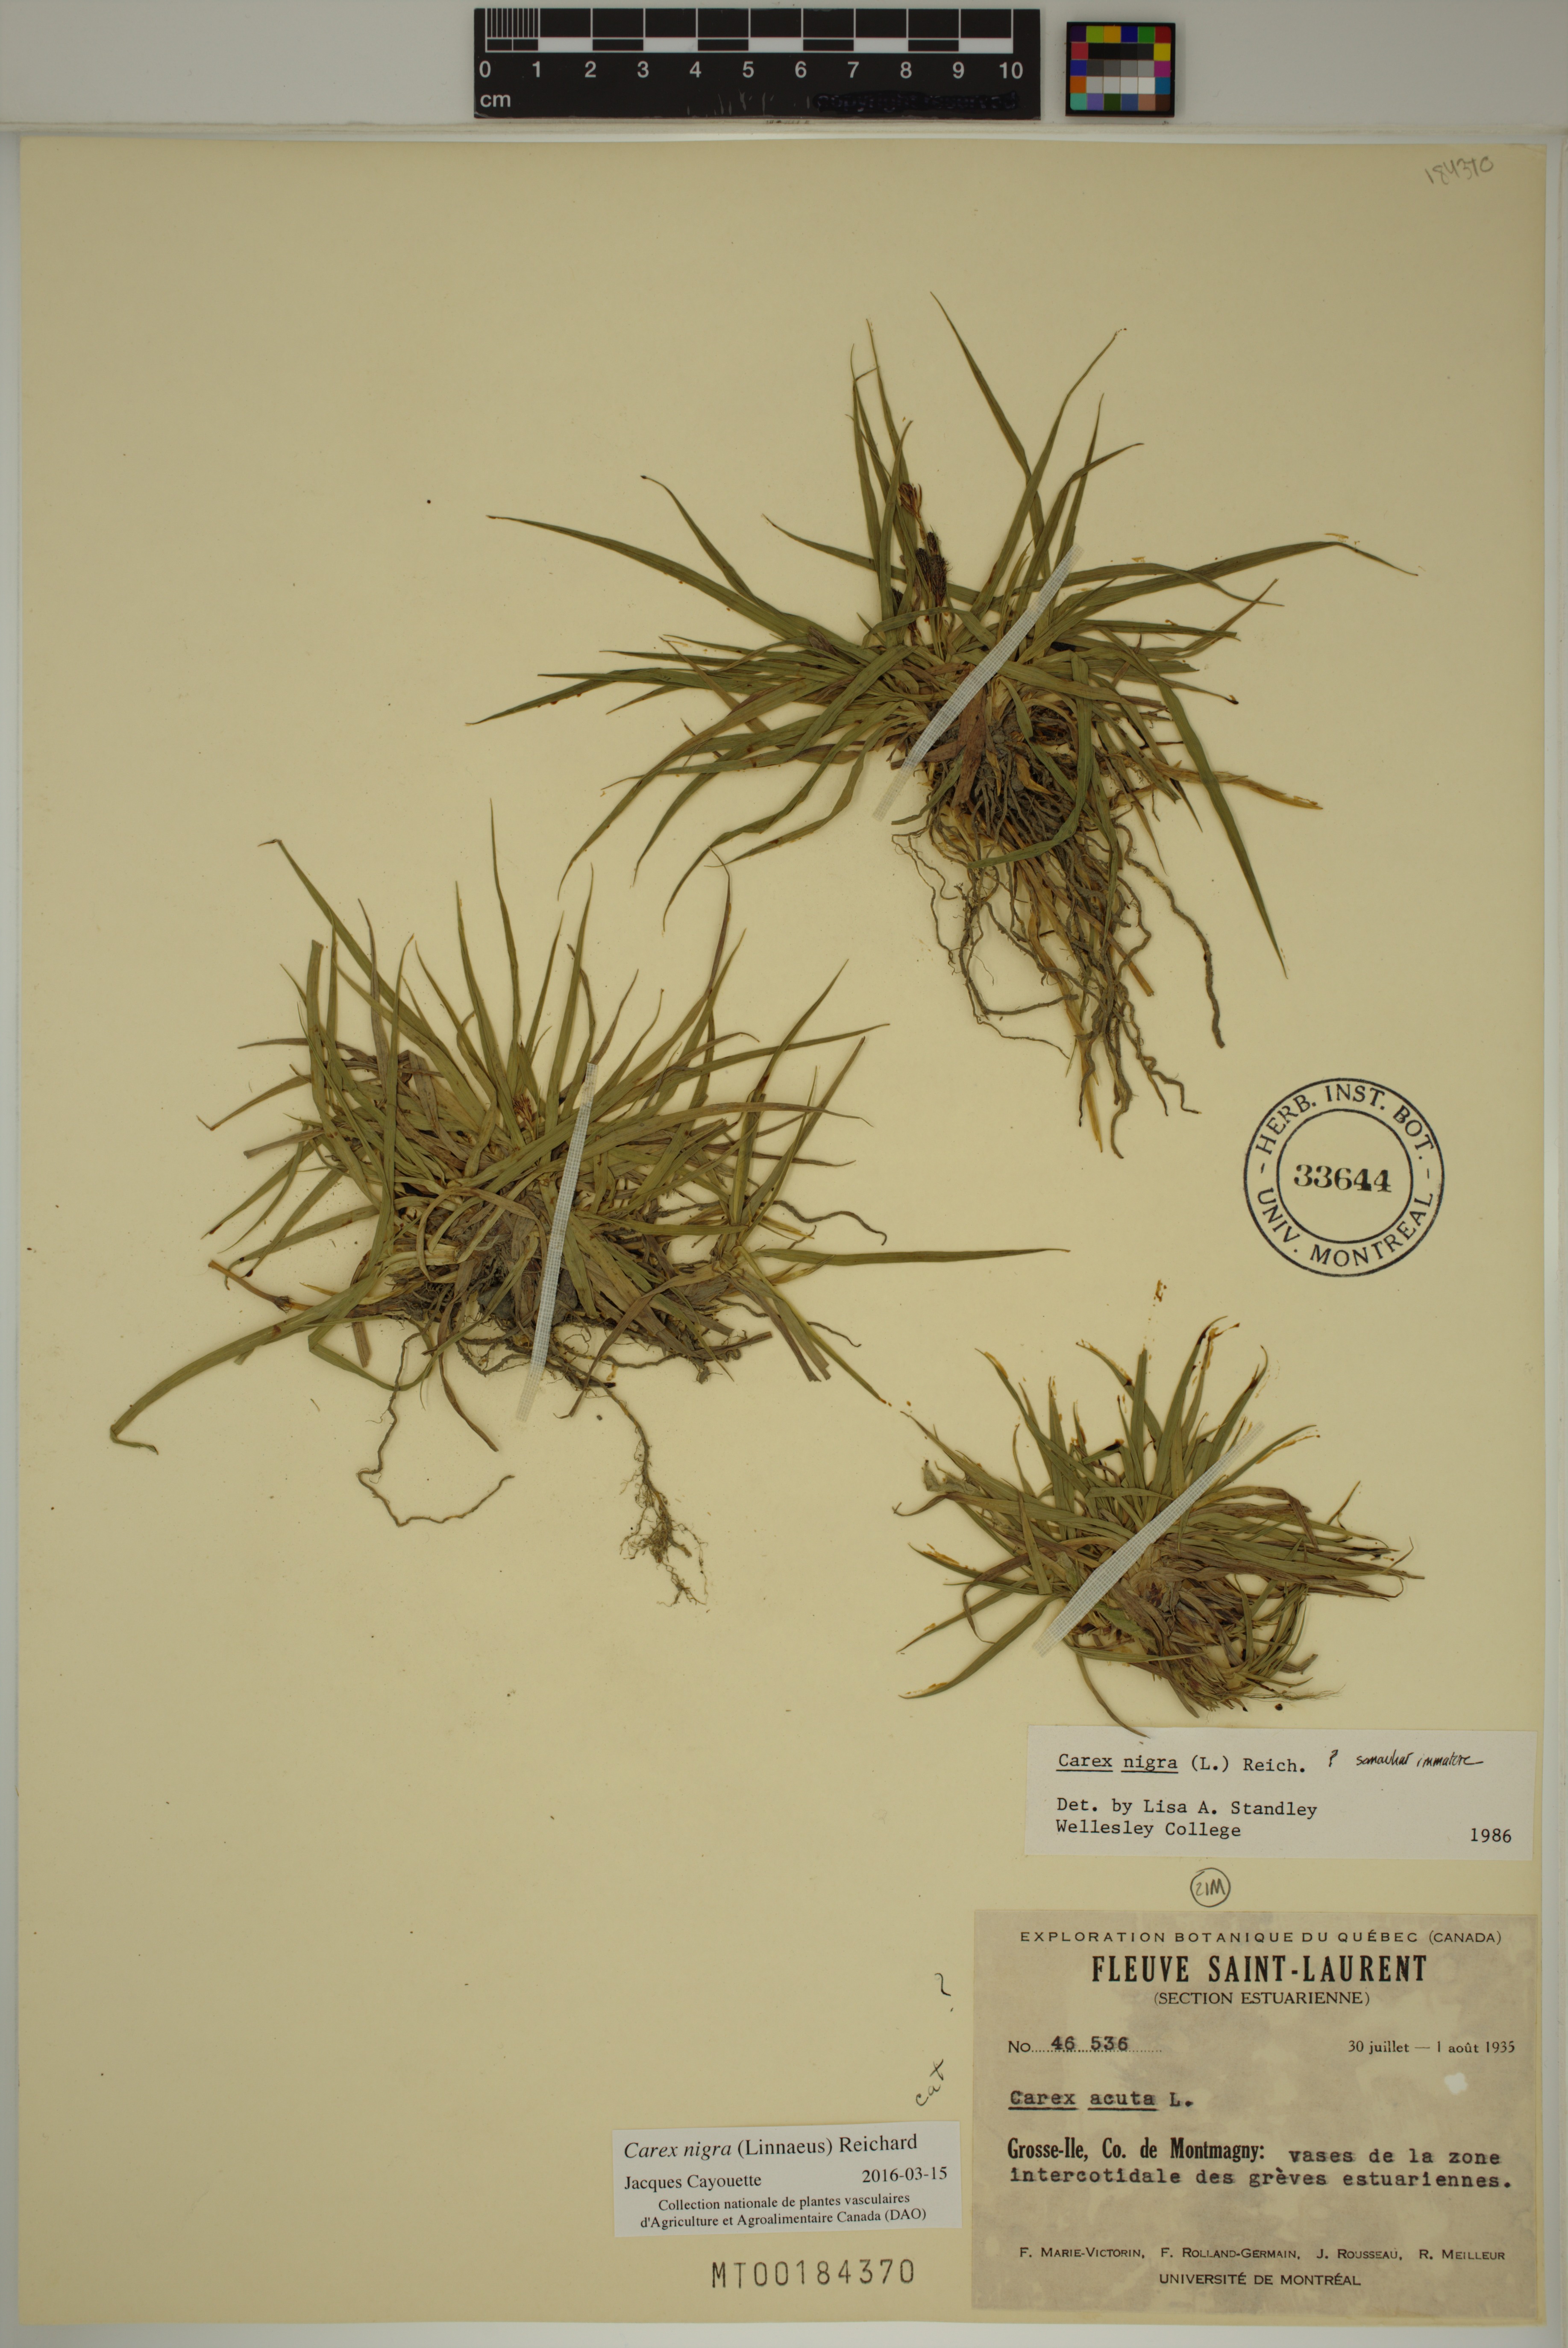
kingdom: Plantae
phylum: Tracheophyta
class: Liliopsida
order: Poales
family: Cyperaceae
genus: Carex
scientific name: Carex nigra
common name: Common sedge
